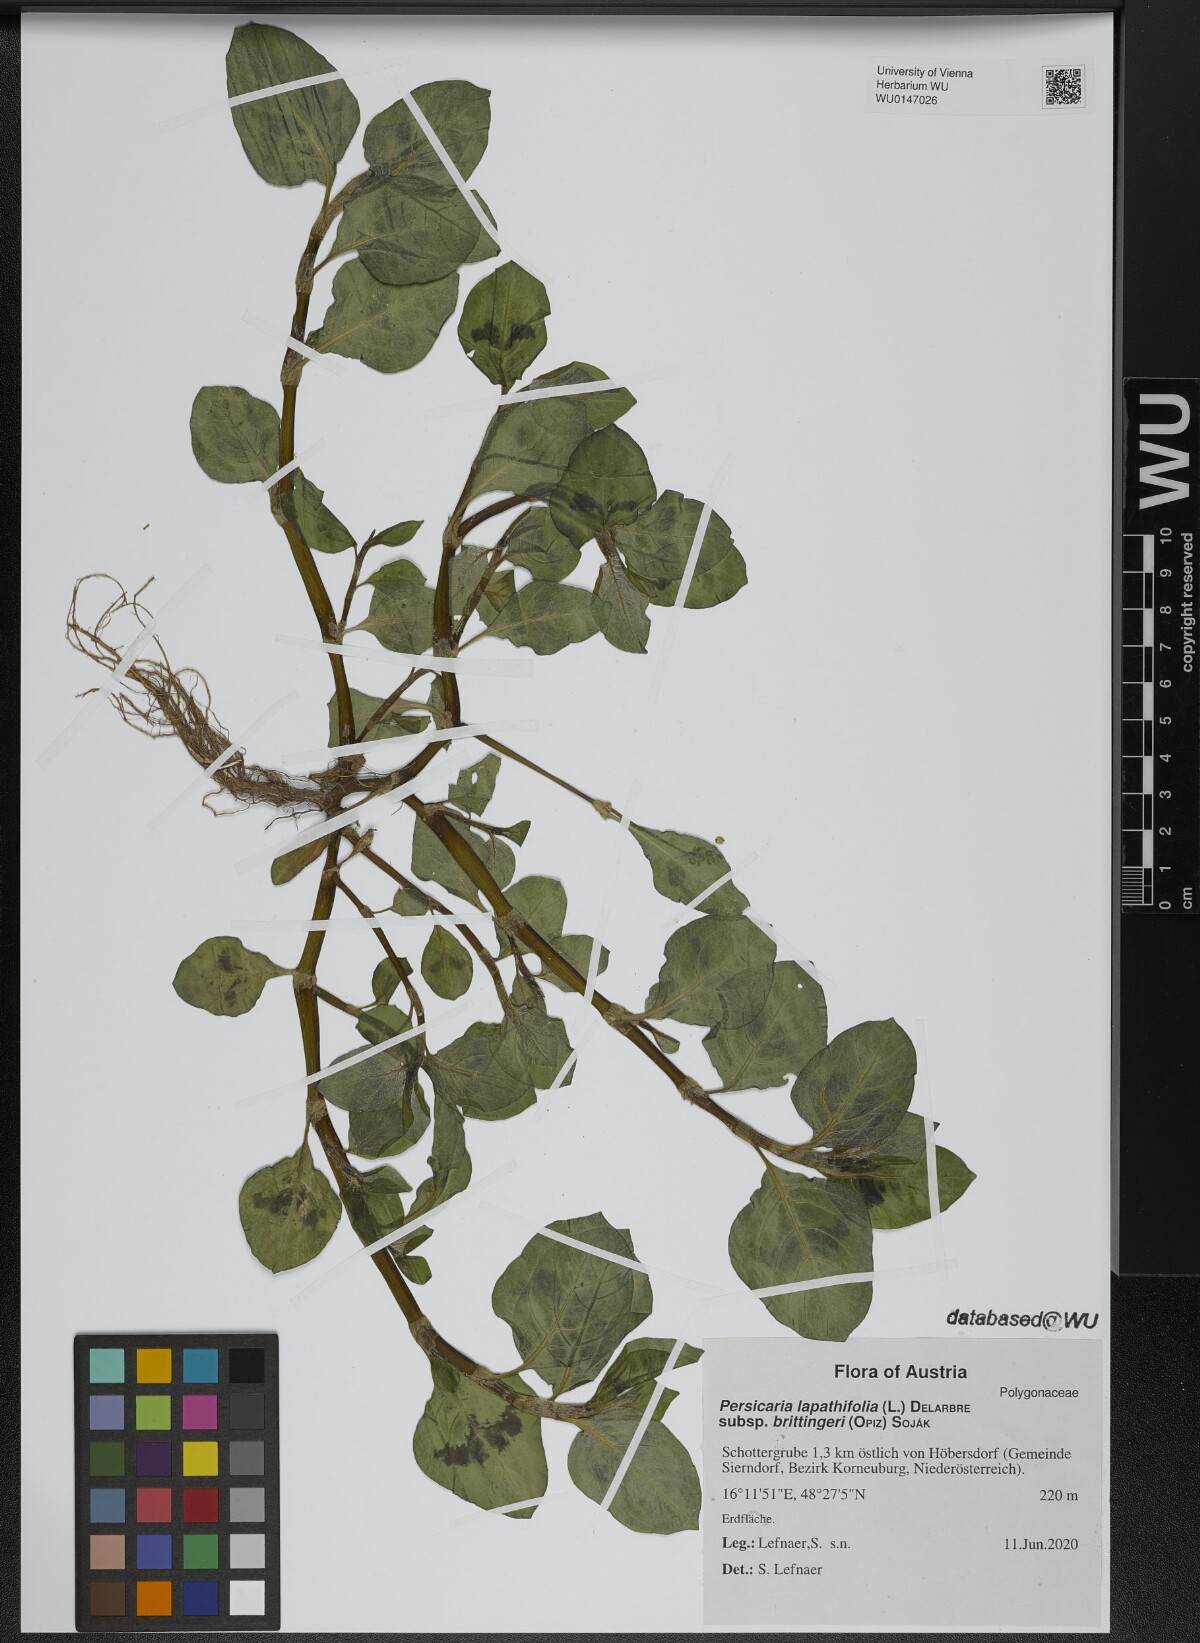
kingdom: Plantae
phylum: Tracheophyta
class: Magnoliopsida
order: Caryophyllales
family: Polygonaceae
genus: Persicaria
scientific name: Persicaria lapathifolia
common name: Curlytop knotweed
